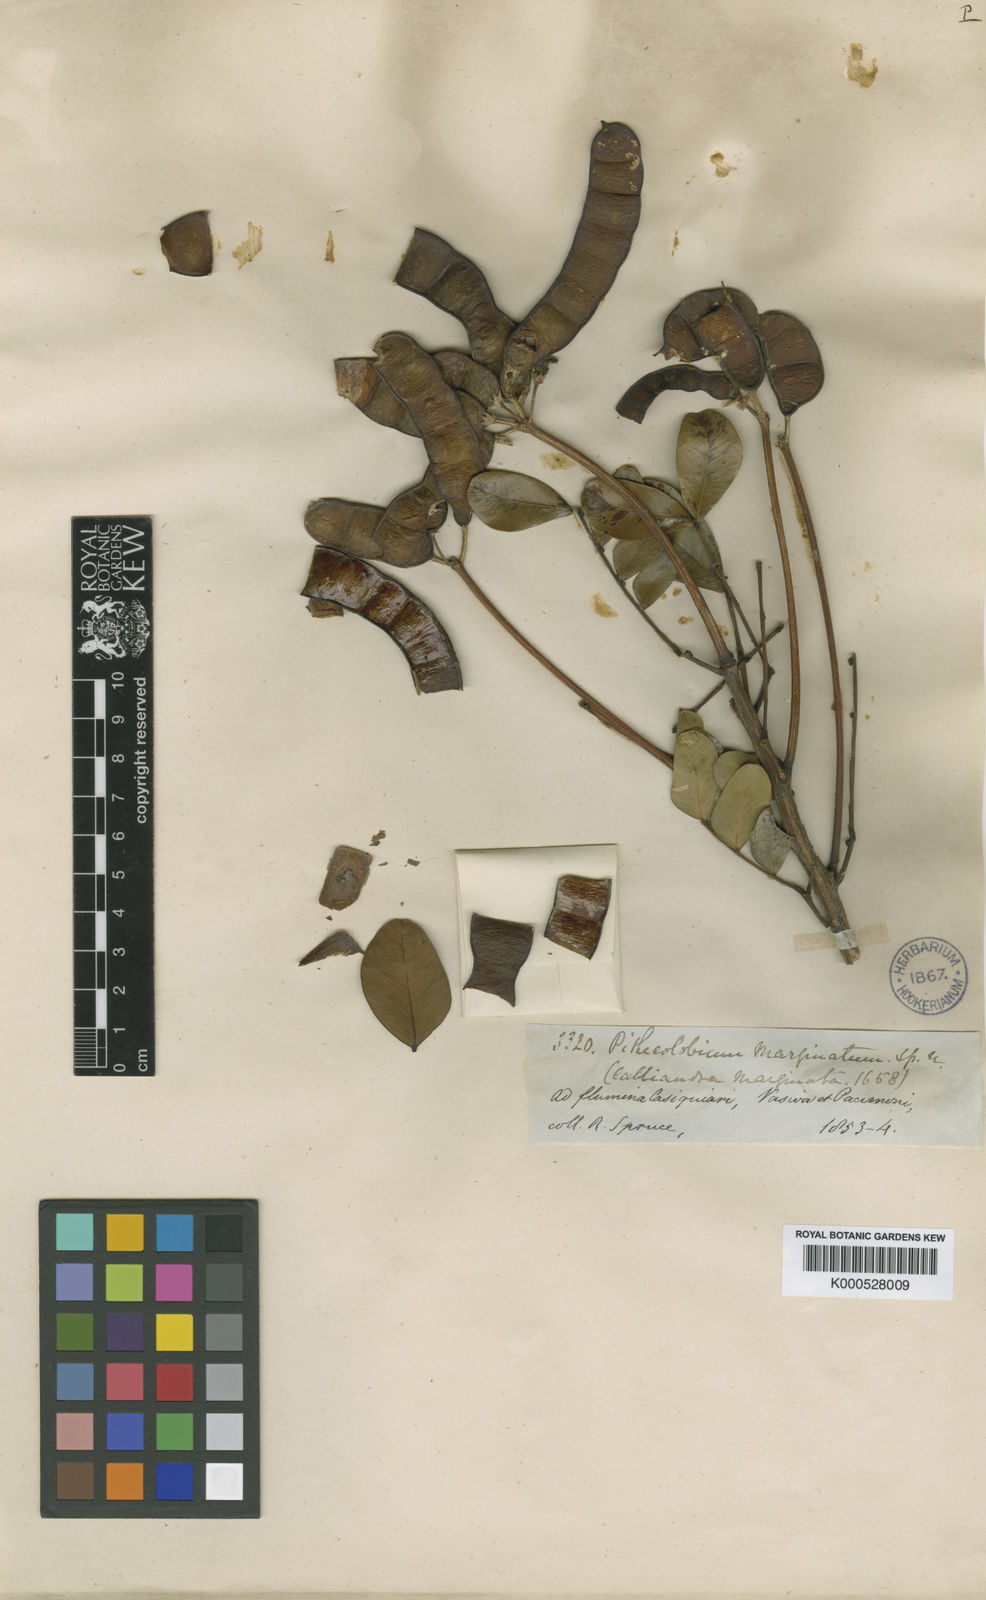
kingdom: Plantae
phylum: Tracheophyta
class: Magnoliopsida
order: Fabales
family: Fabaceae
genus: Hydrochorea
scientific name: Hydrochorea marginata
